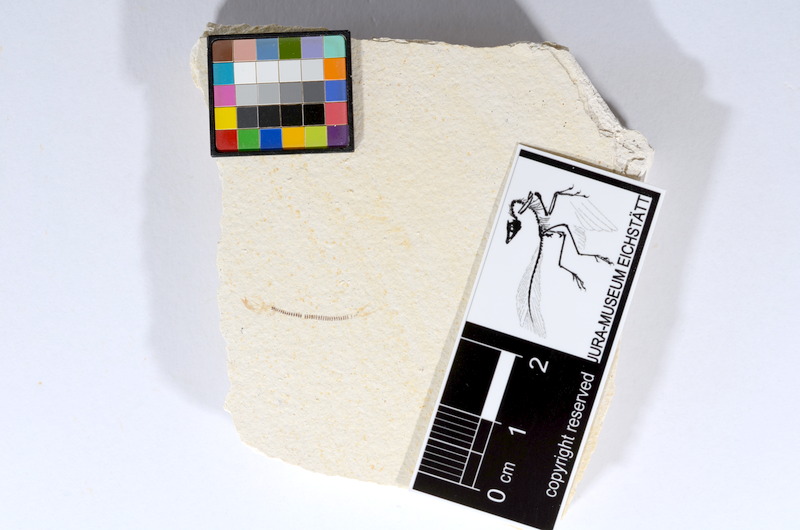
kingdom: Animalia
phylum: Chordata
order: Salmoniformes
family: Orthogonikleithridae
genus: Orthogonikleithrus
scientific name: Orthogonikleithrus hoelli
